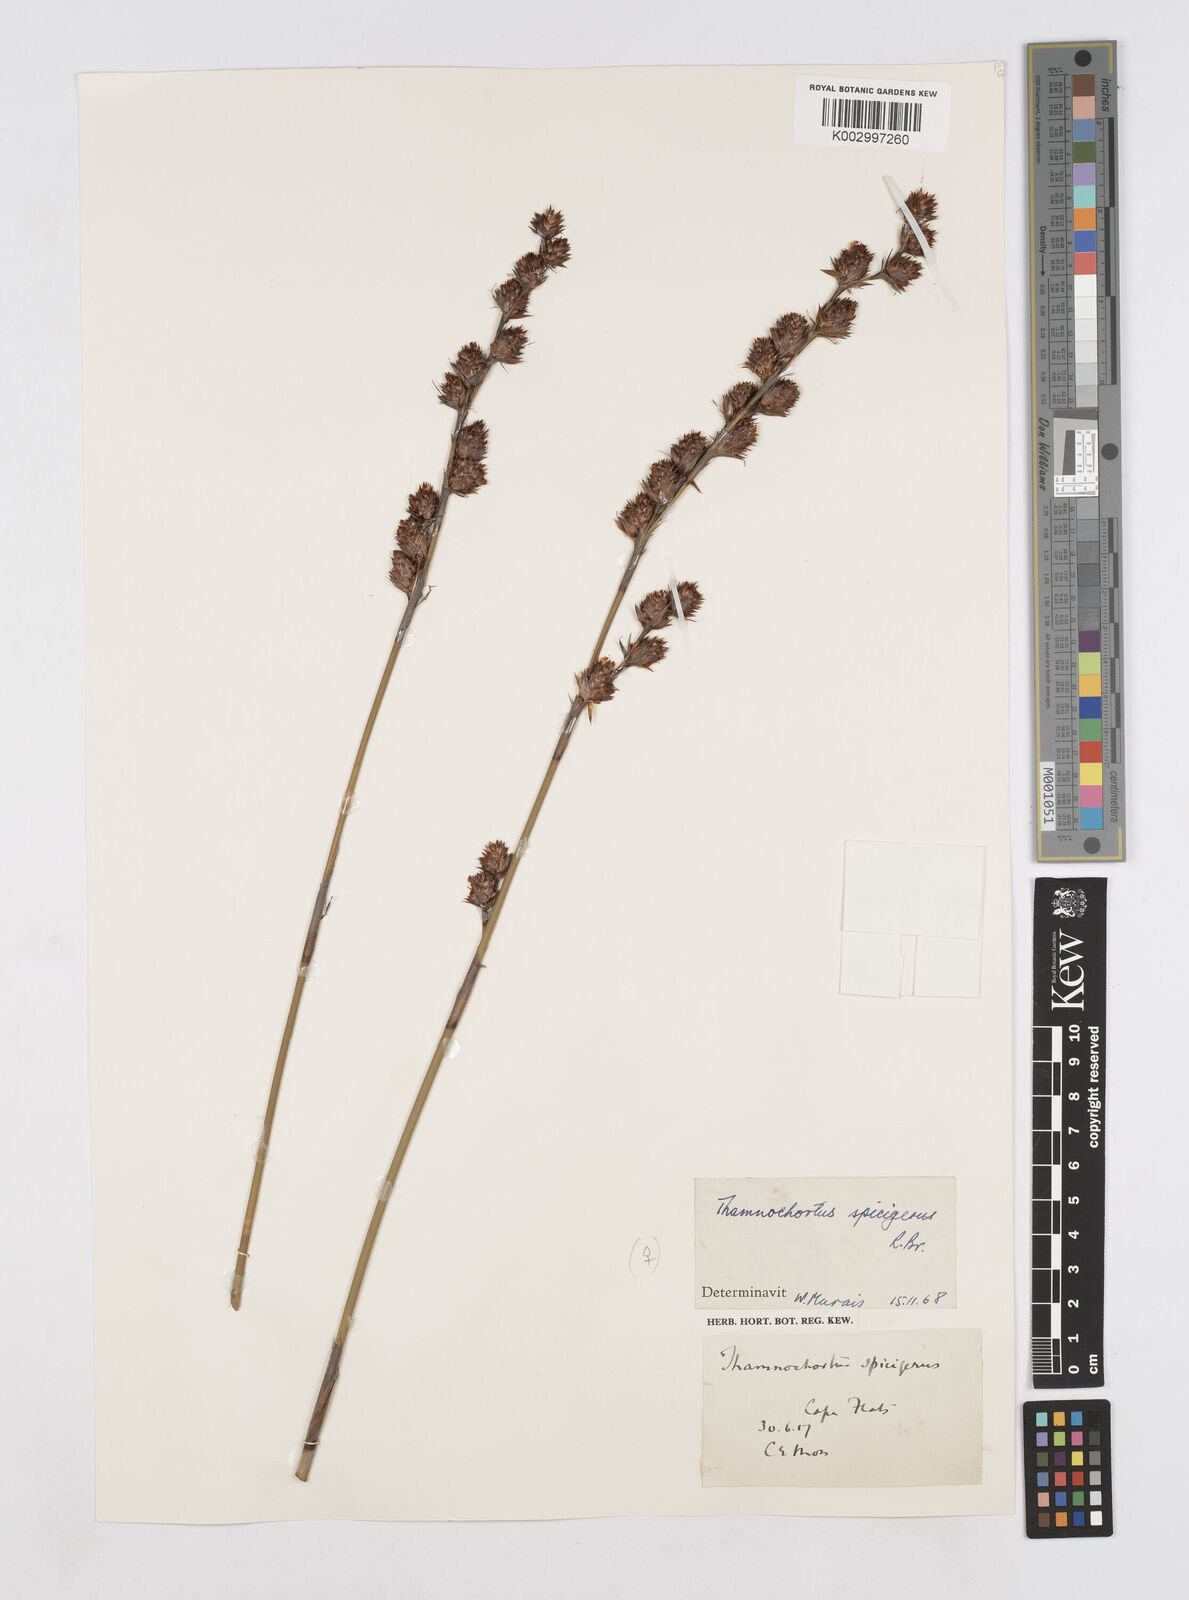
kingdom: Plantae
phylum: Tracheophyta
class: Liliopsida
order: Poales
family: Restionaceae
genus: Thamnochortus
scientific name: Thamnochortus spicigerus
